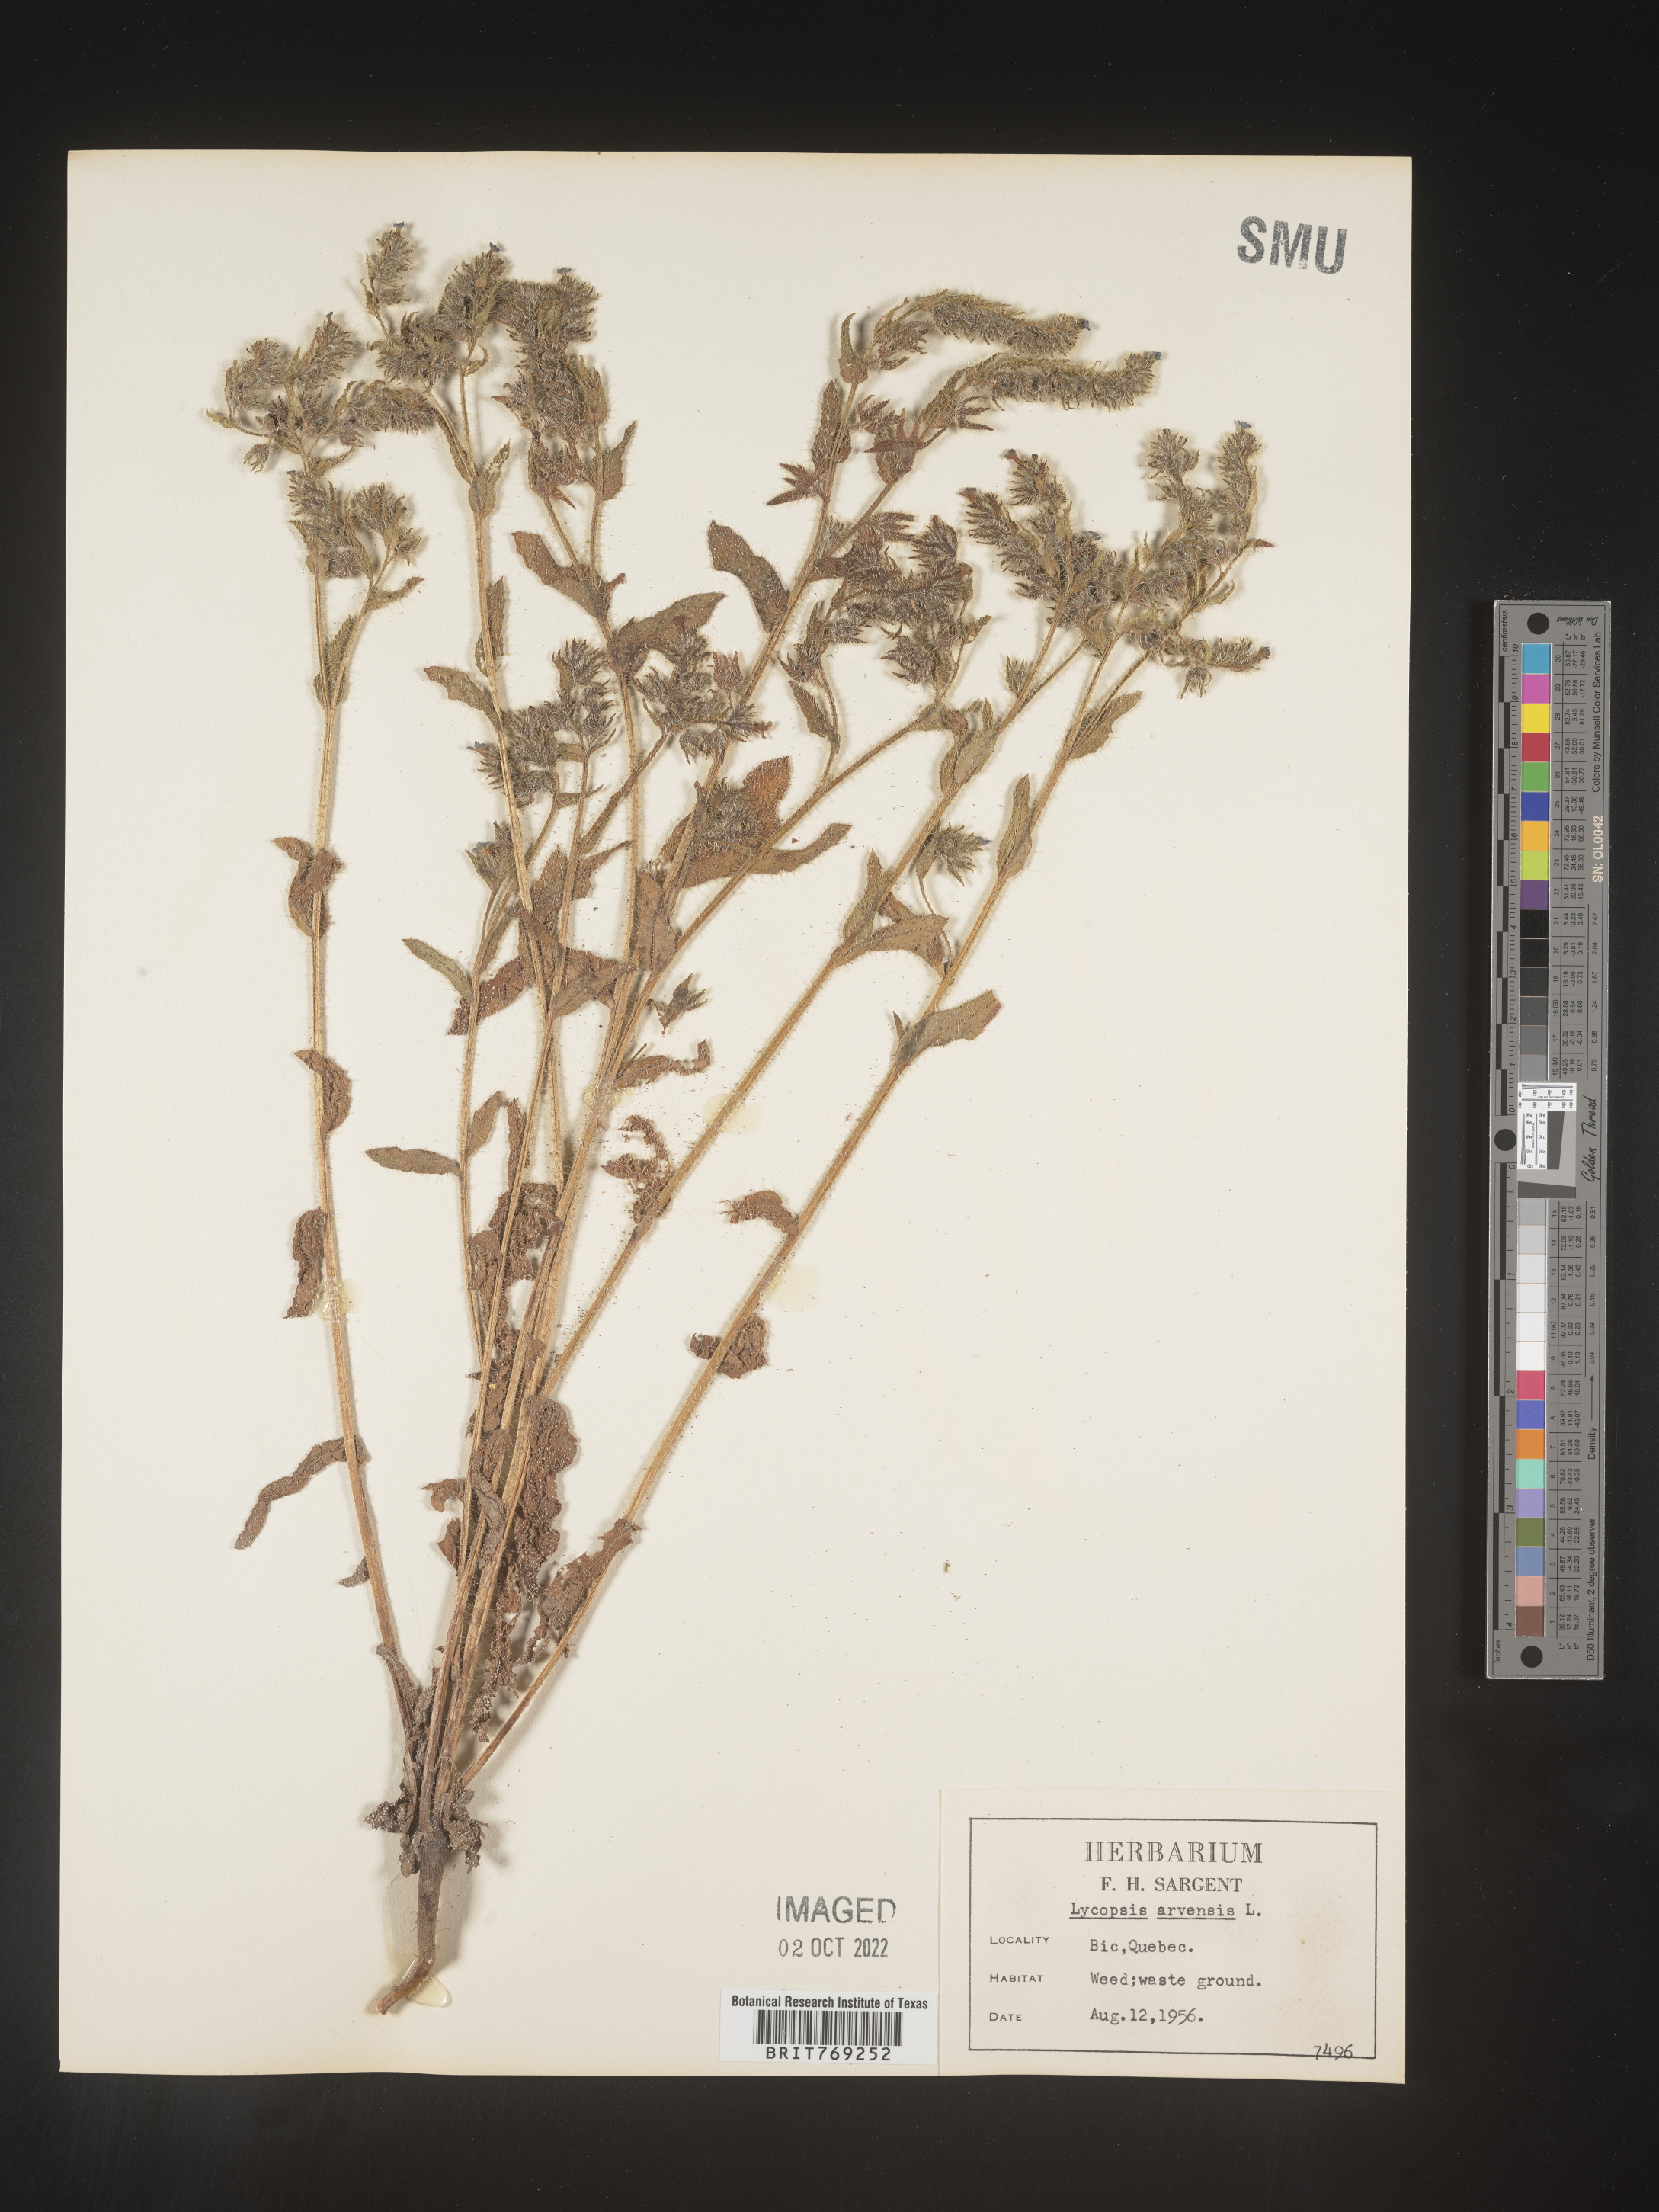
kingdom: Plantae
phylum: Tracheophyta
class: Magnoliopsida
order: Boraginales
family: Boraginaceae
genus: Lycopsis
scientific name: Lycopsis
